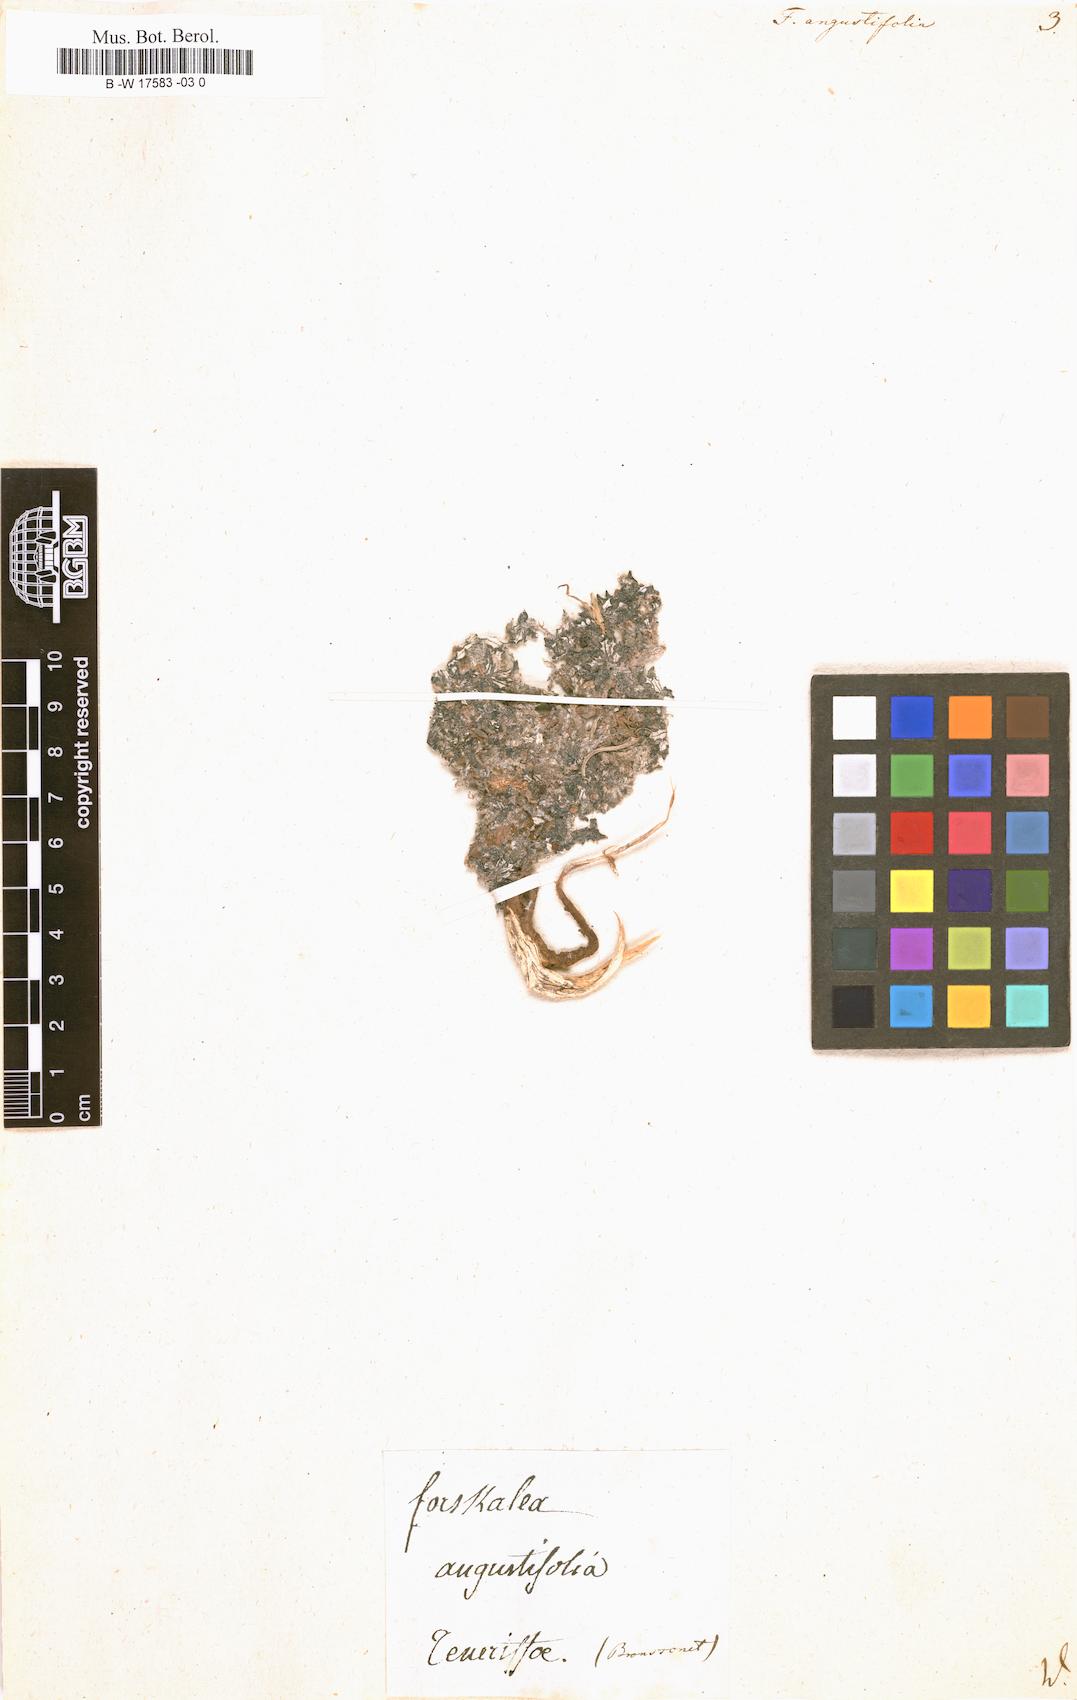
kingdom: Plantae
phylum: Tracheophyta
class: Magnoliopsida
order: Rosales
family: Urticaceae
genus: Forskohlea
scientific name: Forskohlea
